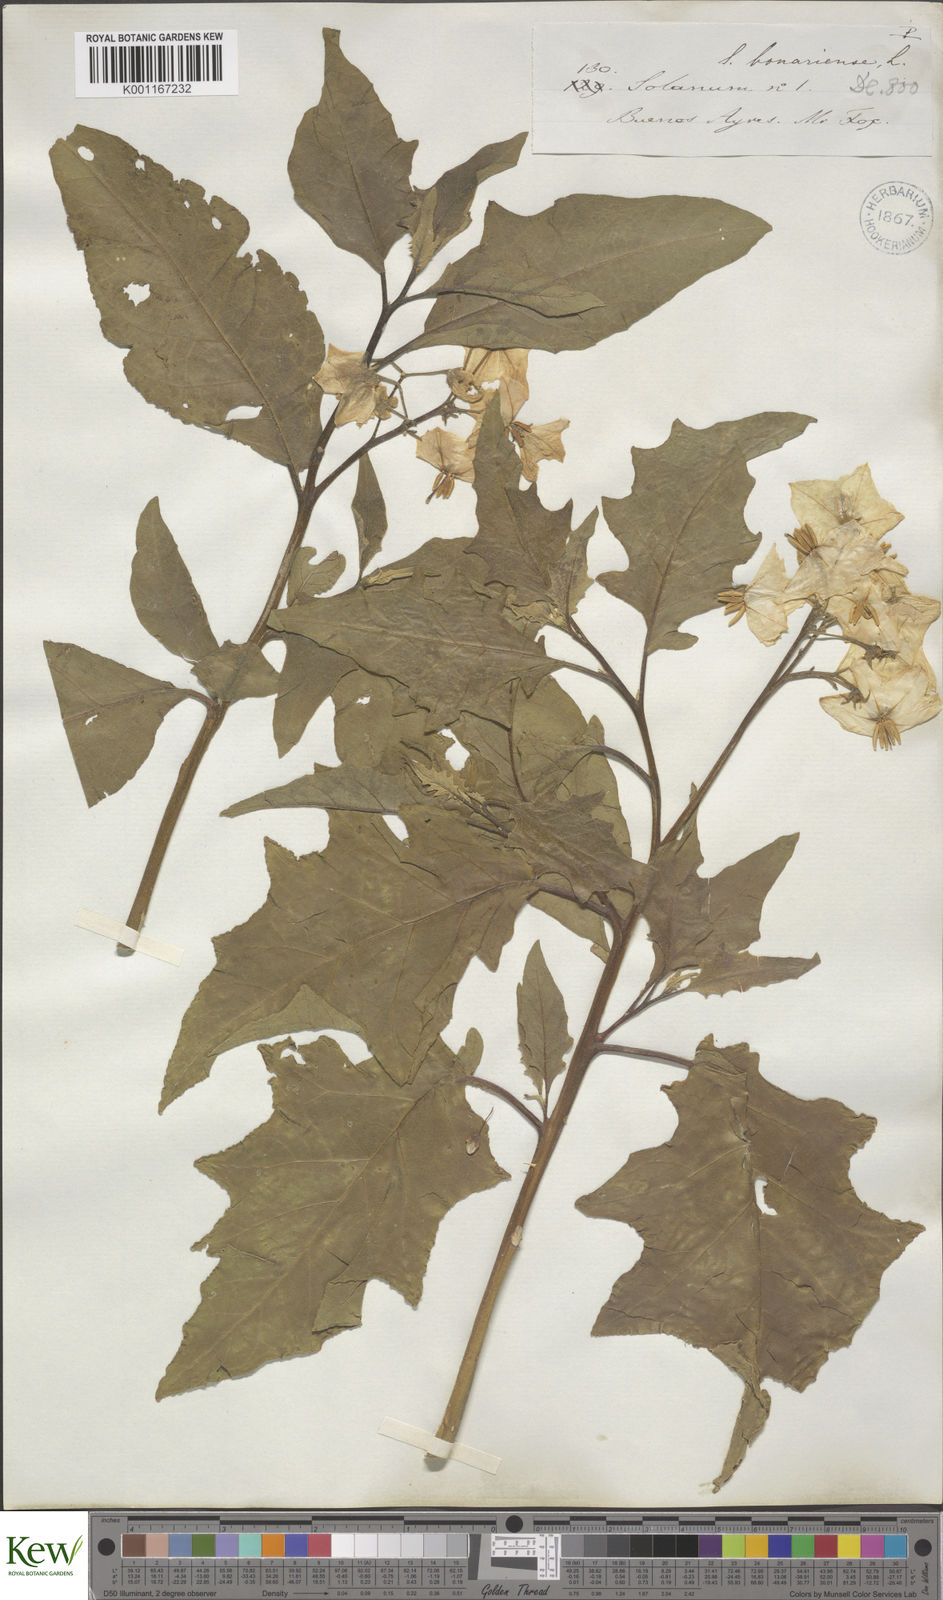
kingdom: Plantae
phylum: Tracheophyta
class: Magnoliopsida
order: Solanales
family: Solanaceae
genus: Solanum
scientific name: Solanum bonariense
